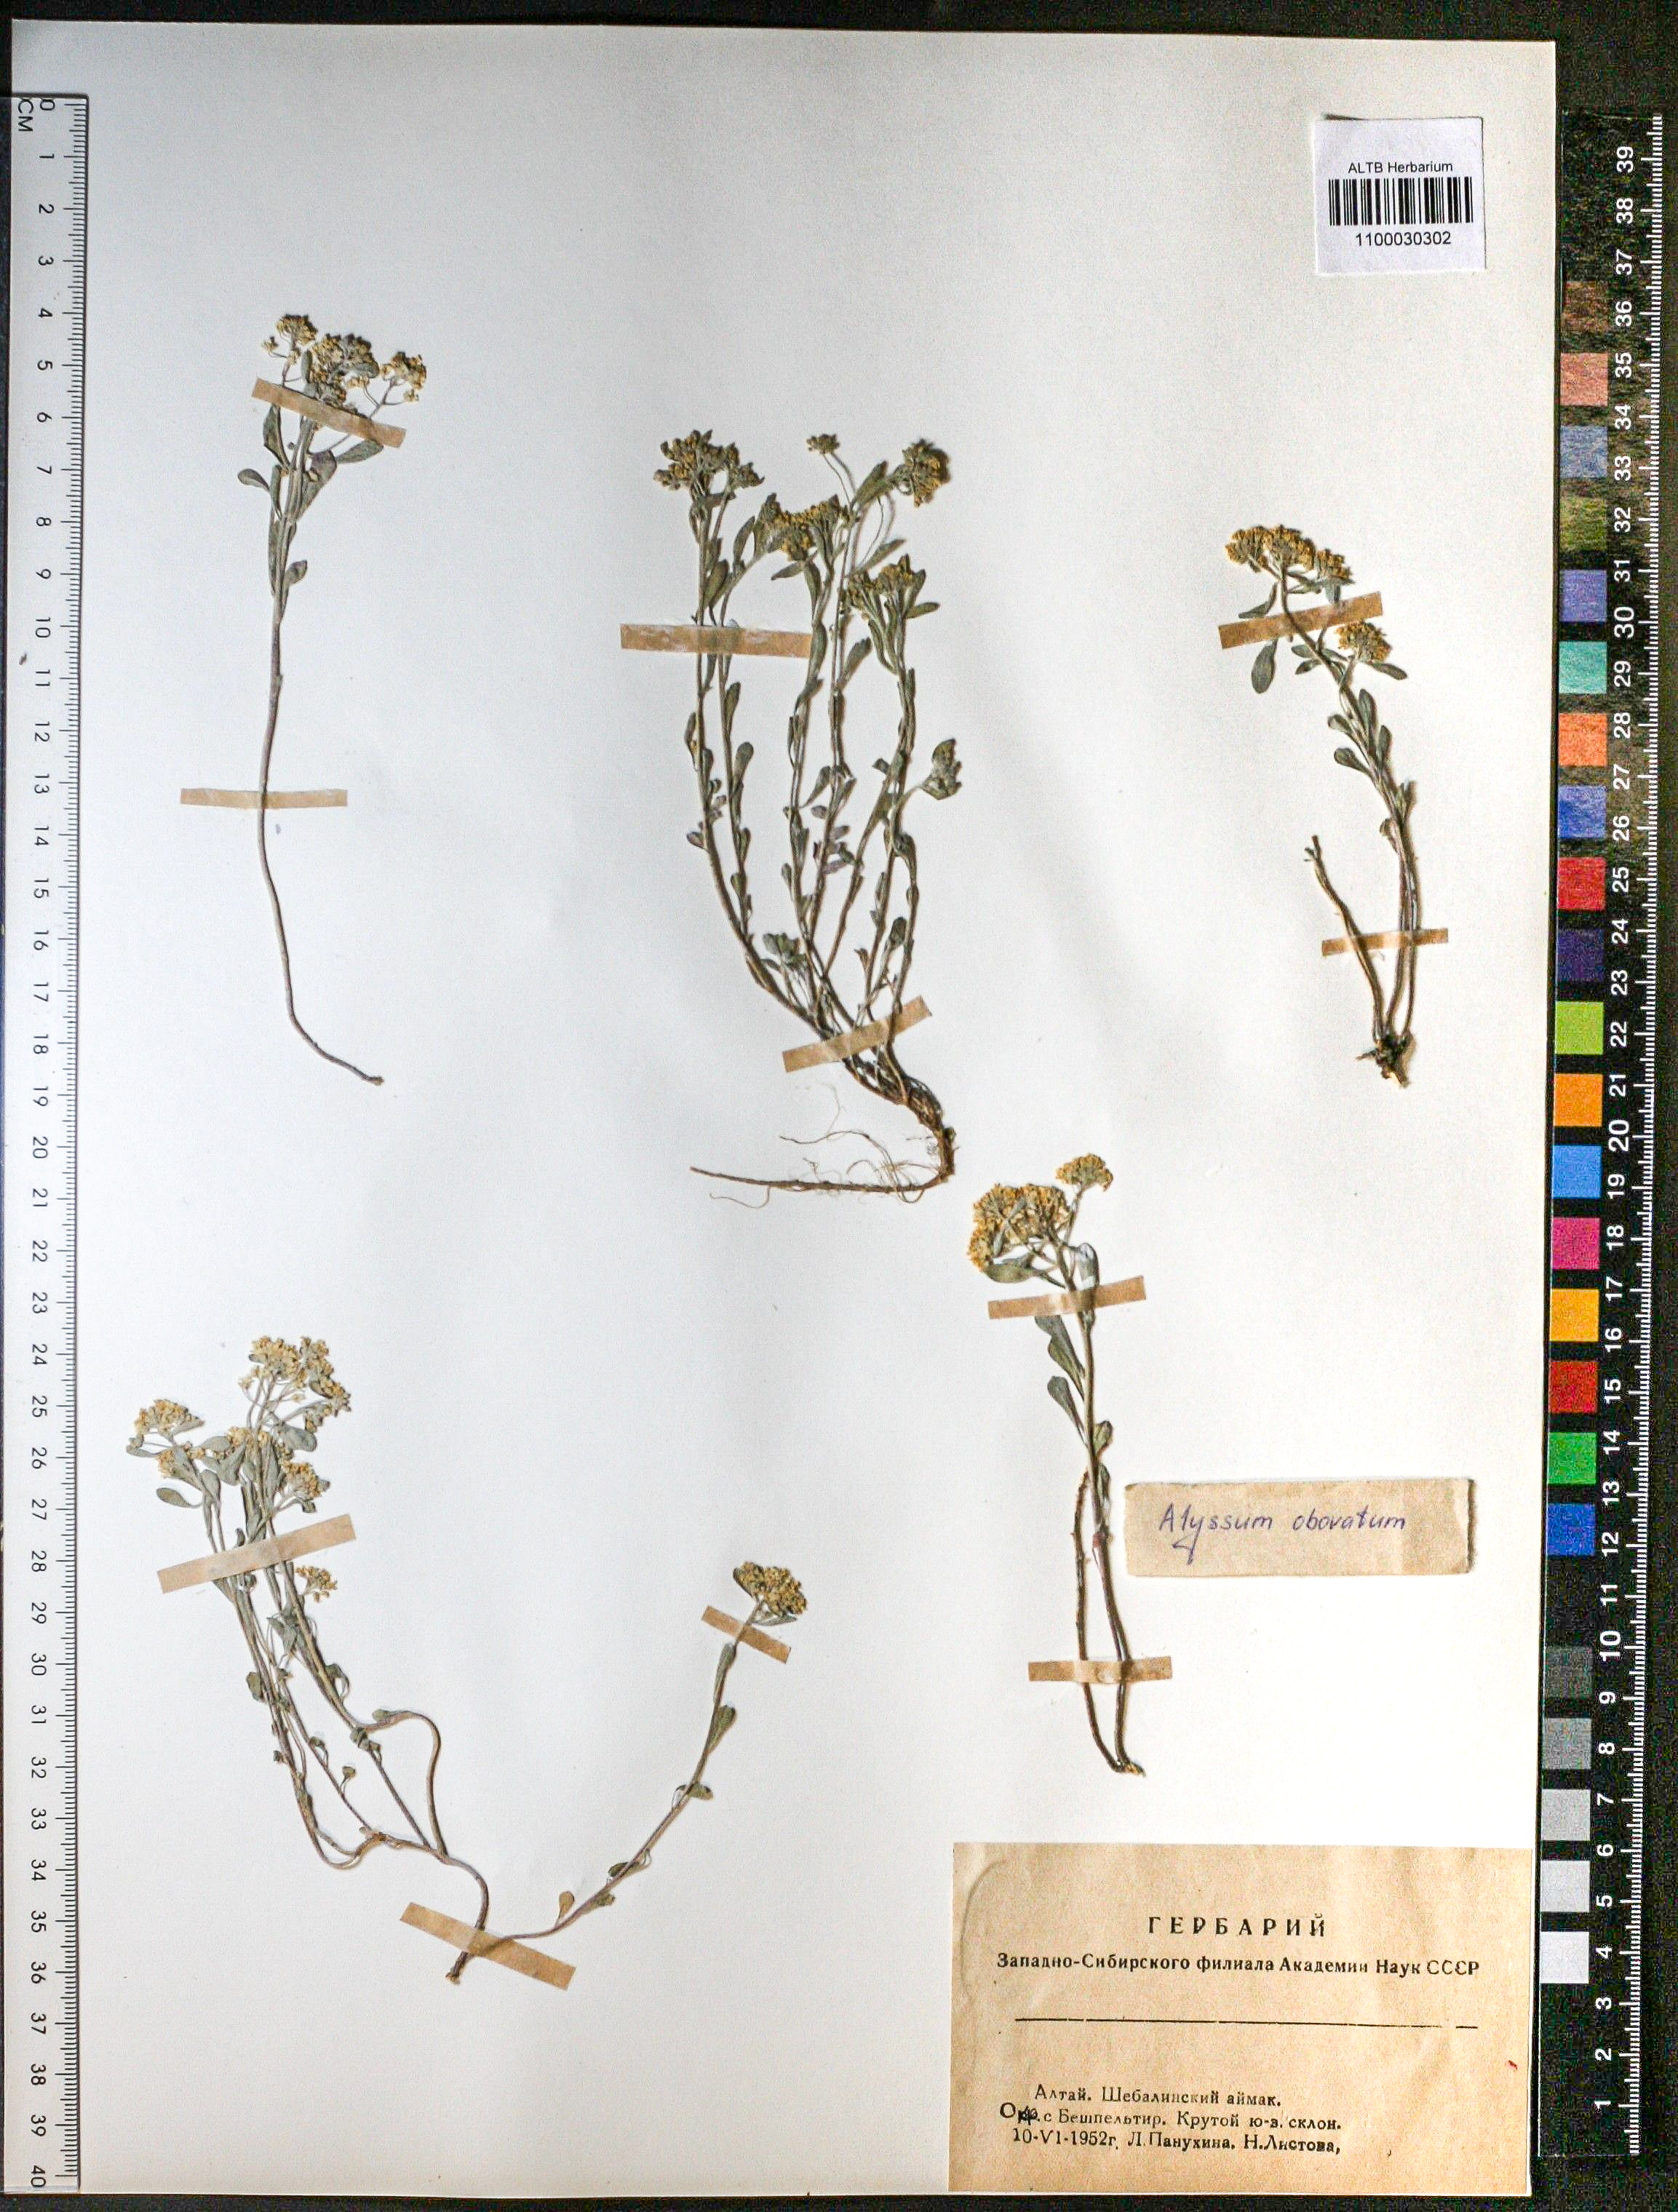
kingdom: Plantae
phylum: Tracheophyta
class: Magnoliopsida
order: Brassicales
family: Brassicaceae
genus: Odontarrhena
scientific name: Odontarrhena obovata
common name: American alyssum
